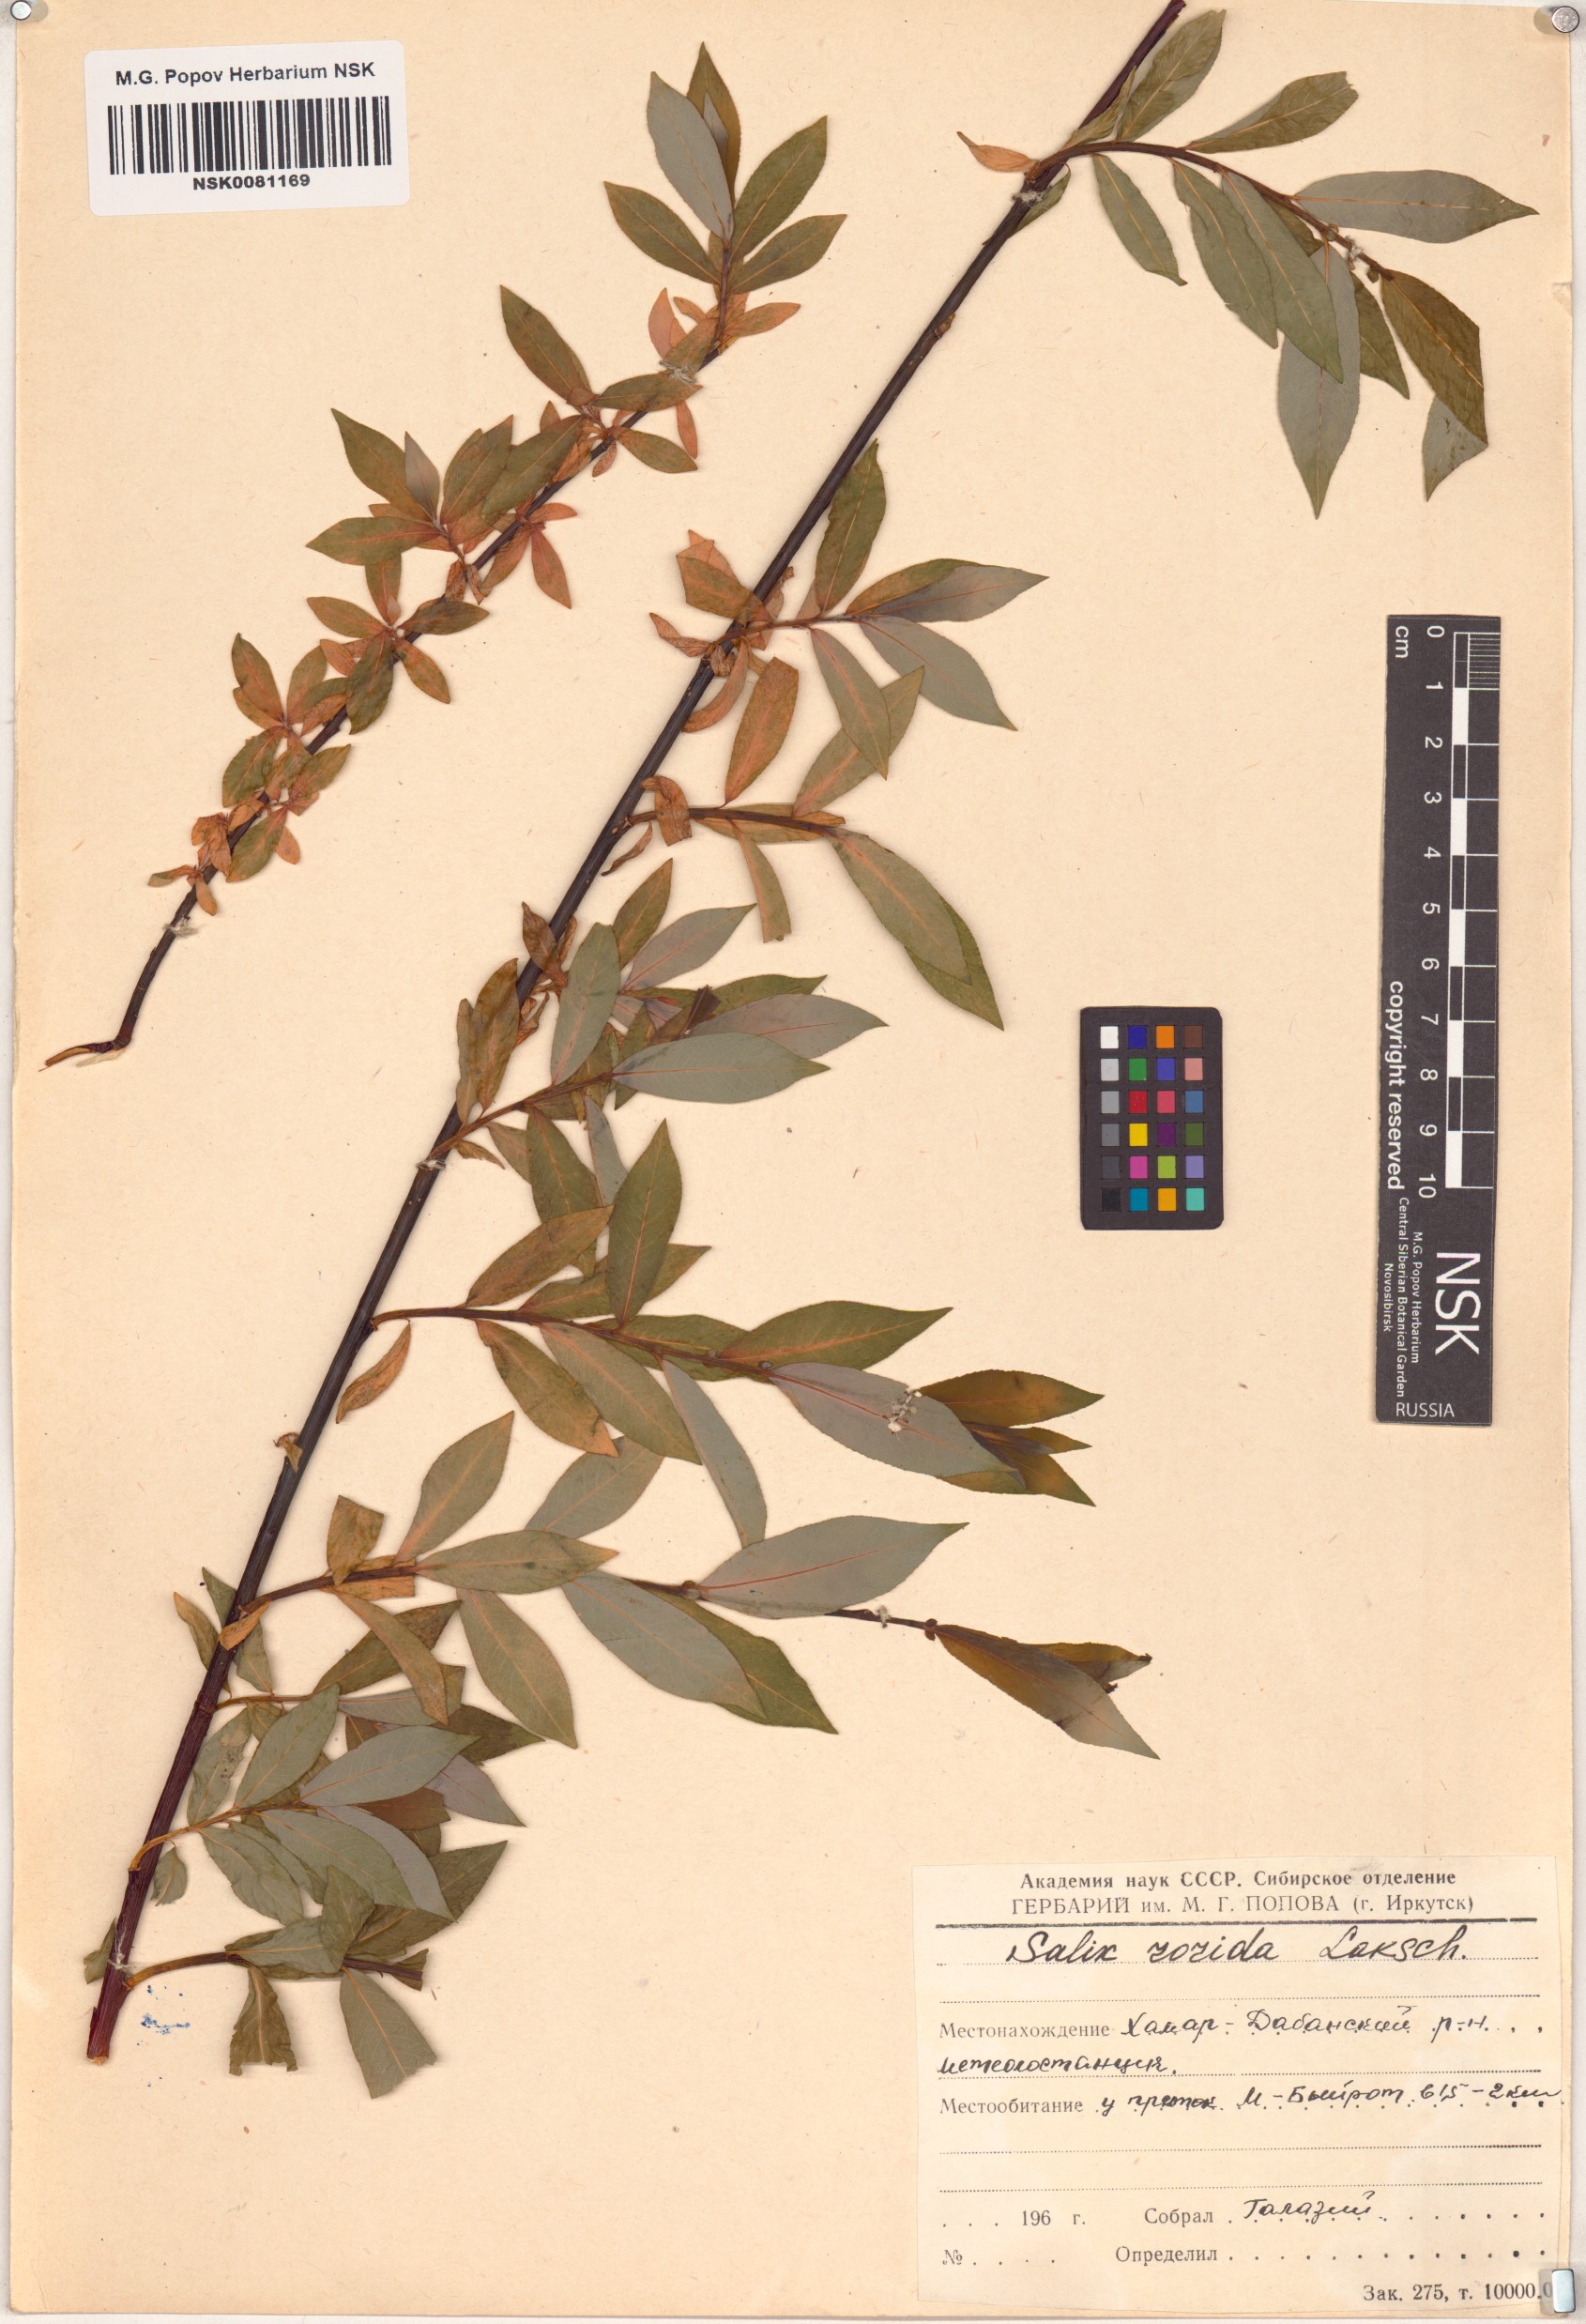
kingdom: Plantae
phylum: Tracheophyta
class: Magnoliopsida
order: Malpighiales
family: Salicaceae
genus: Salix
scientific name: Salix rorida
